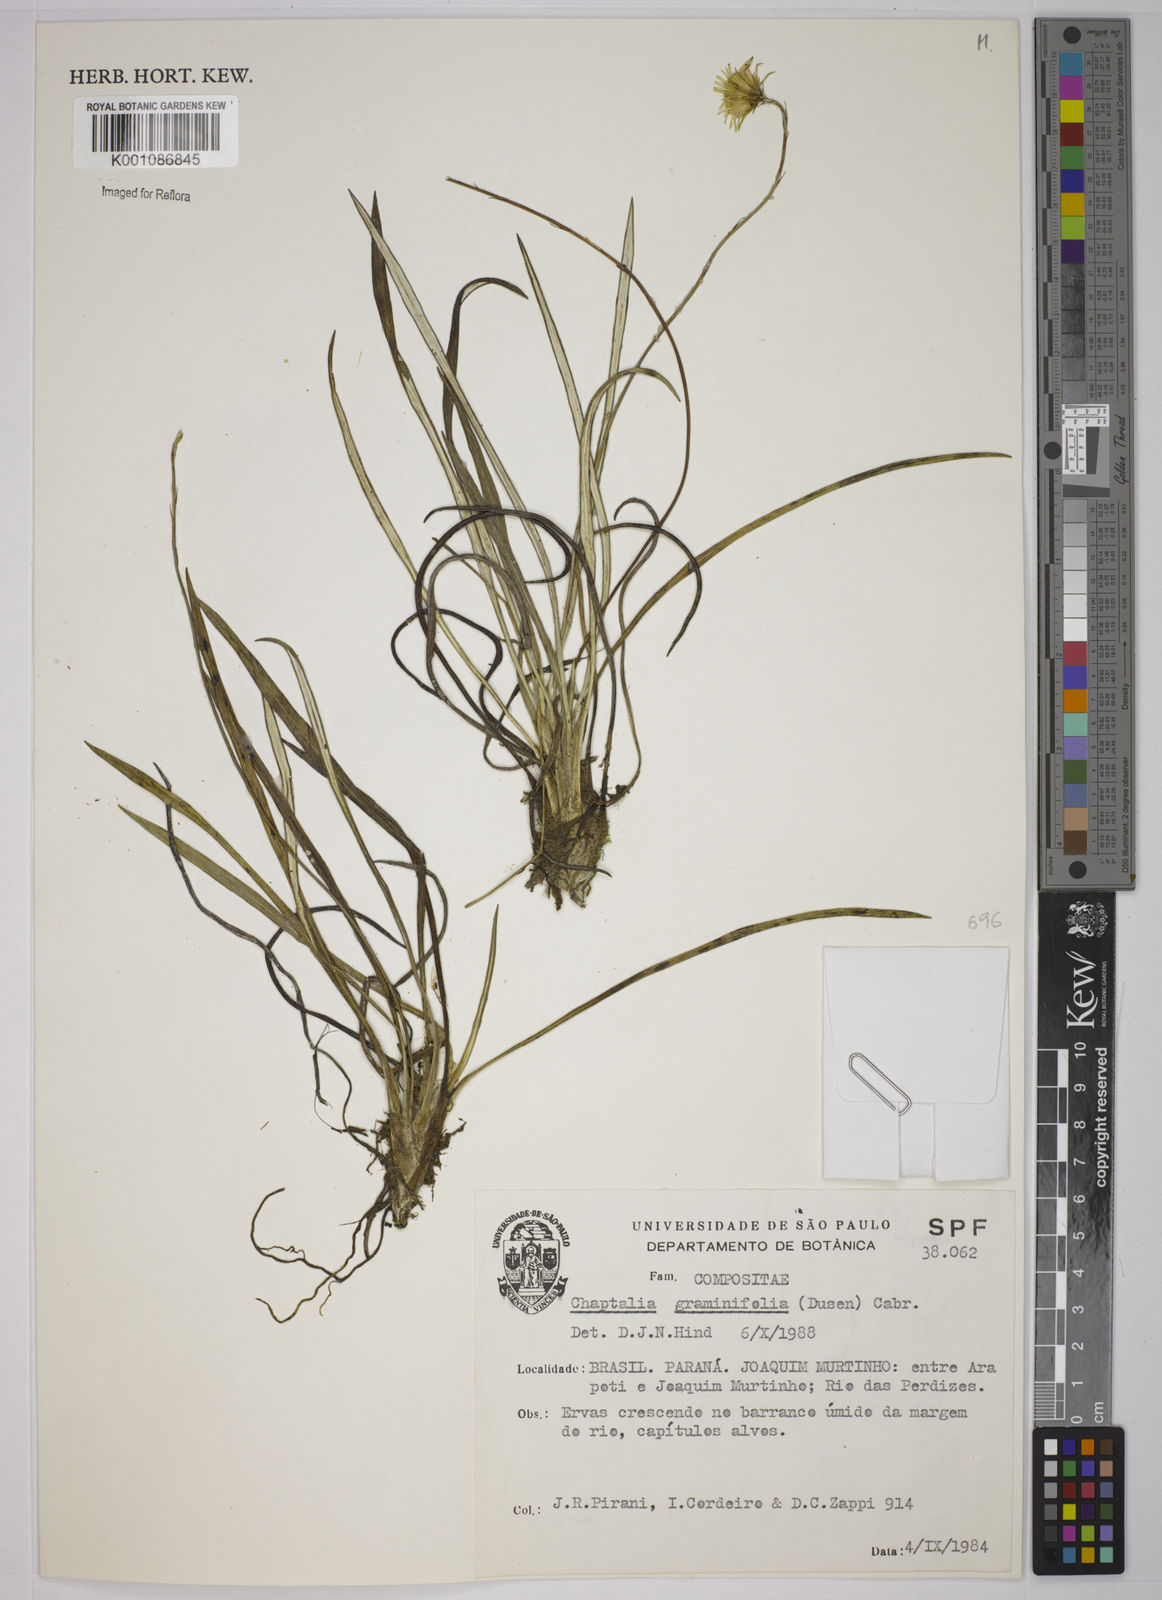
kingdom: Plantae
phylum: Tracheophyta
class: Magnoliopsida
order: Asterales
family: Asteraceae
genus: Chaptalia
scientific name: Chaptalia
